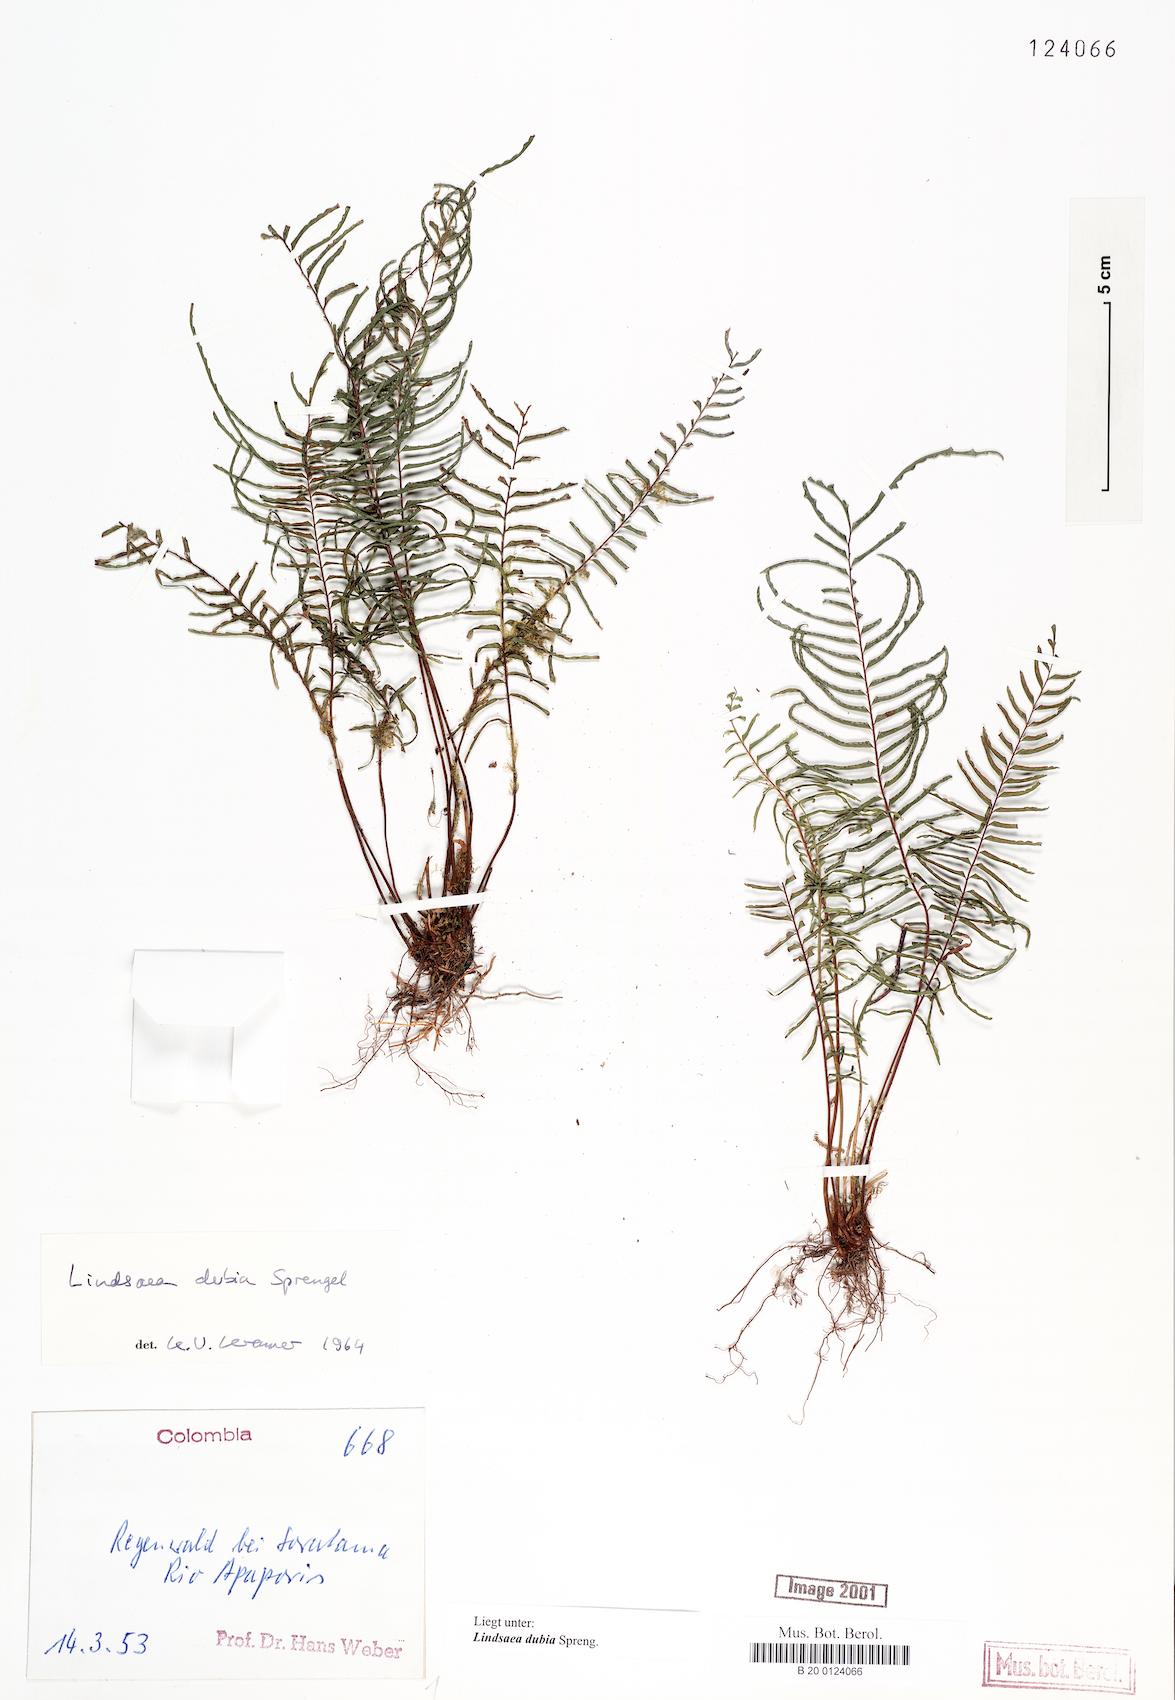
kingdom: Plantae
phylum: Tracheophyta
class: Polypodiopsida
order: Polypodiales
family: Lindsaeaceae
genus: Lindsaea
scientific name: Lindsaea dubia
